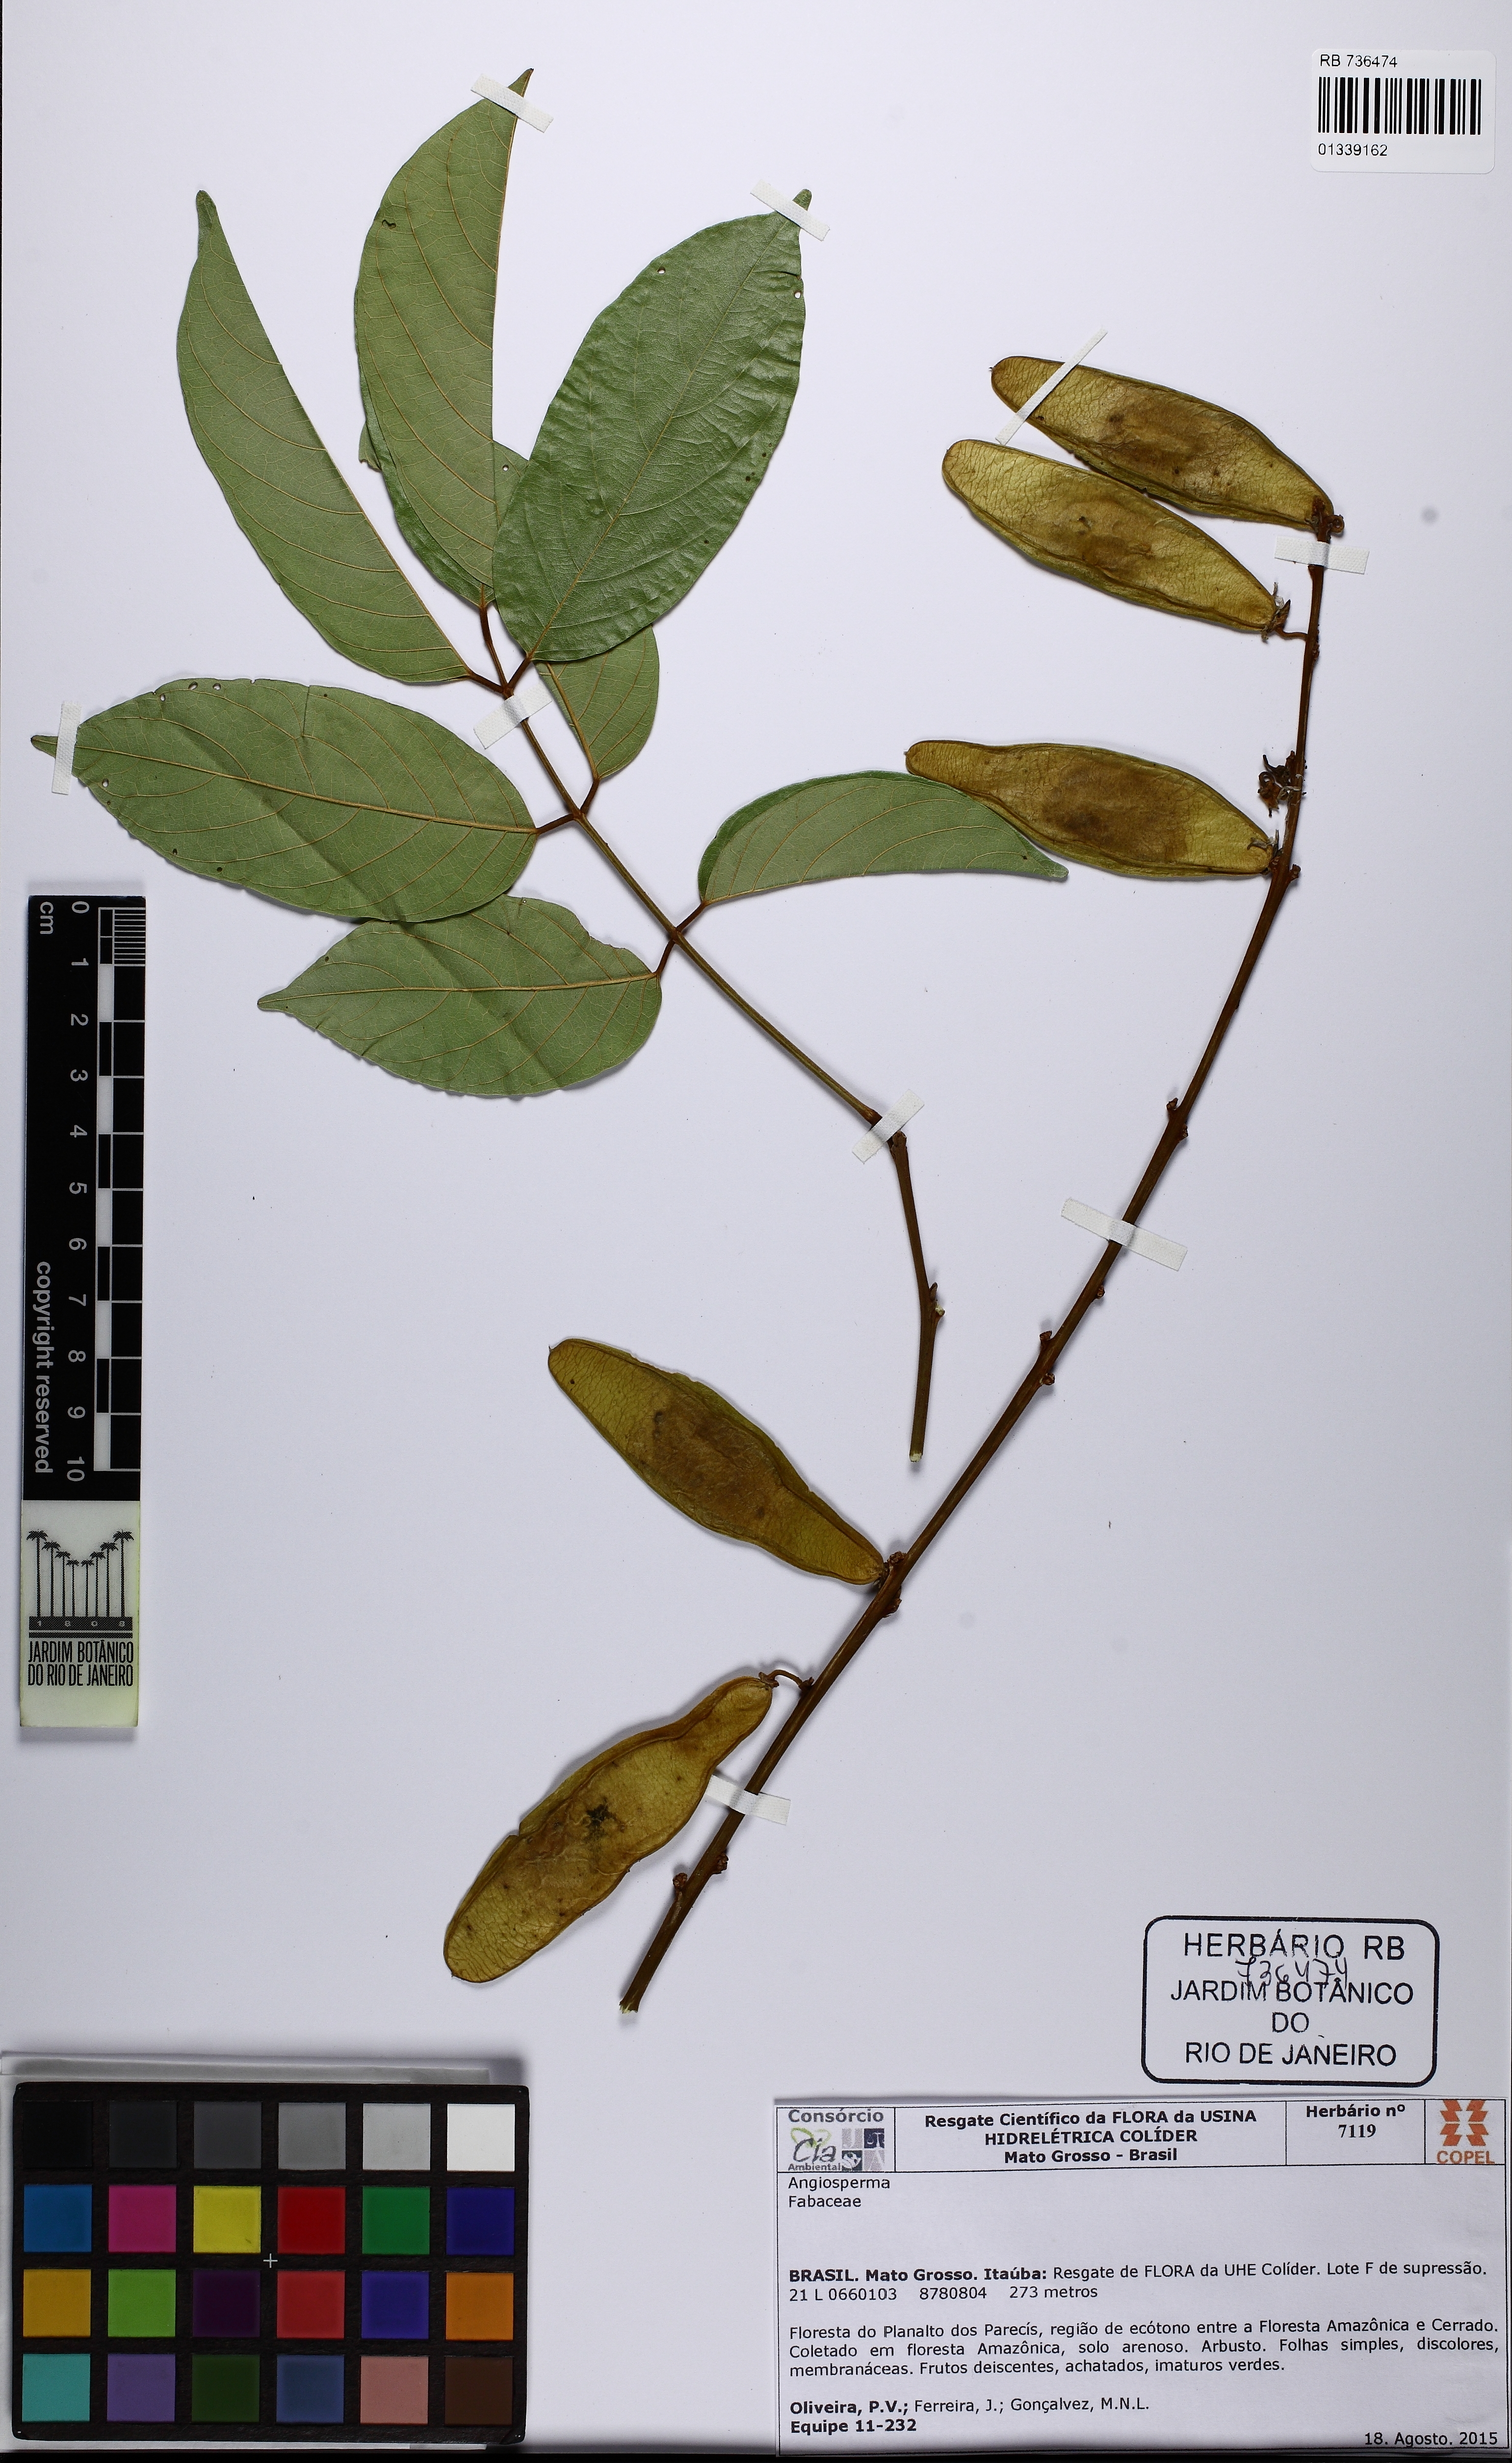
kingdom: Plantae
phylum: Tracheophyta
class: Magnoliopsida
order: Fabales
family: Fabaceae
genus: Deguelia
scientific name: Deguelia amazonica
